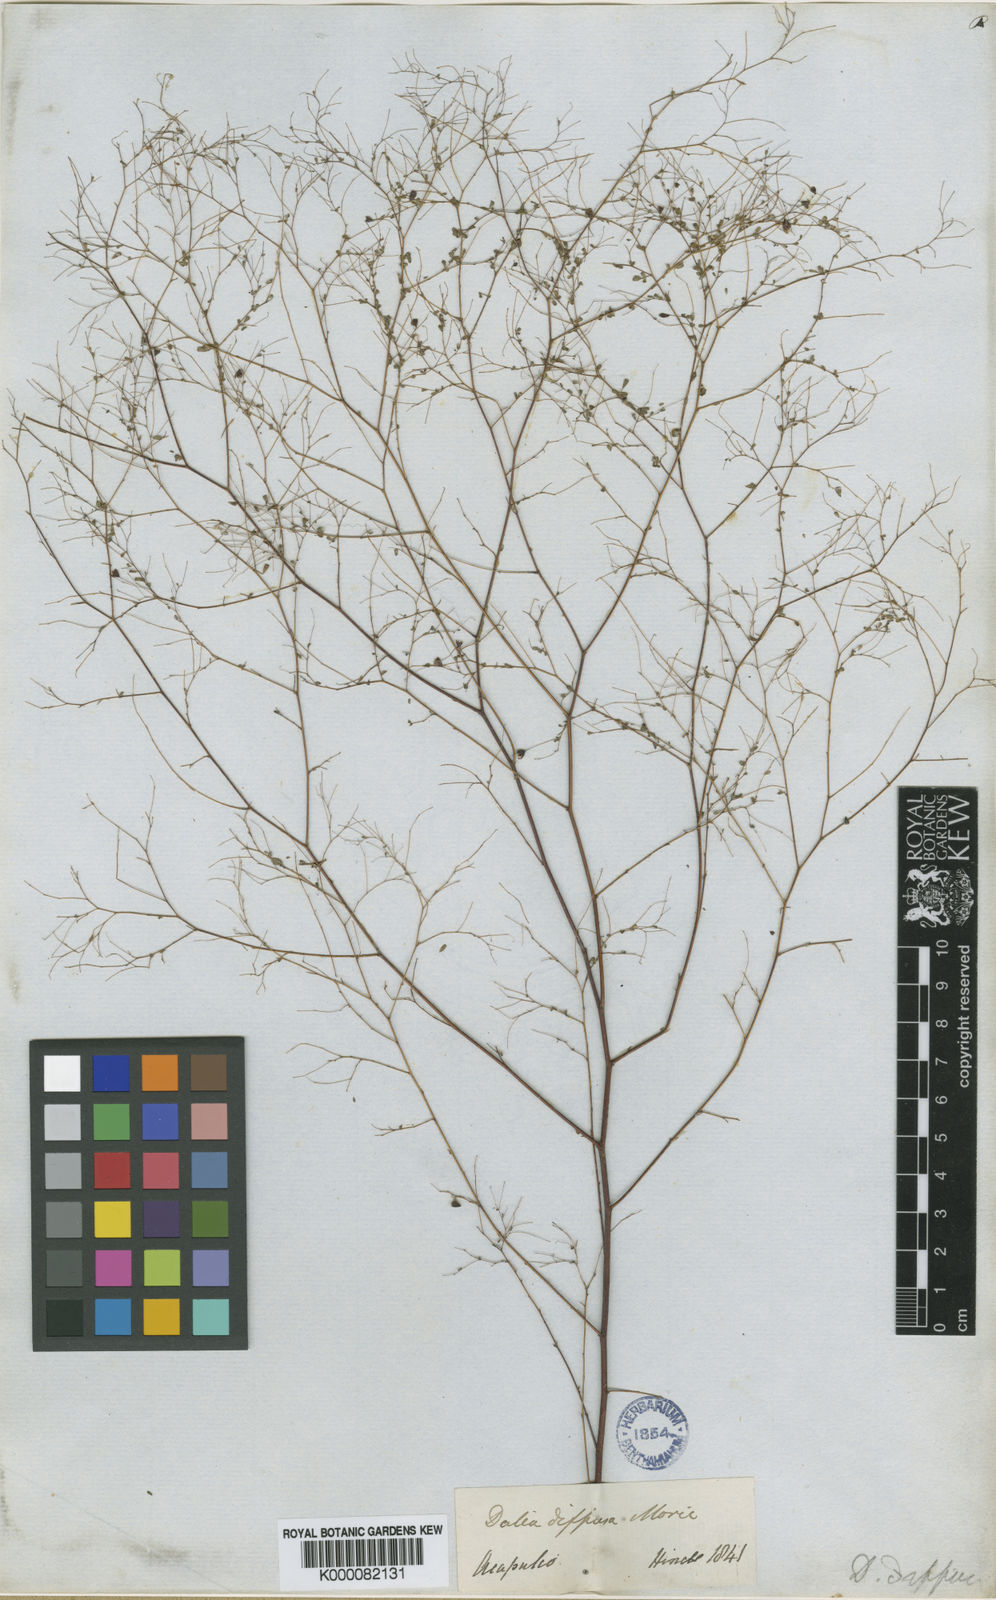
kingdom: Plantae
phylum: Tracheophyta
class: Magnoliopsida
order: Fabales
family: Fabaceae
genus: Marina
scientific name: Marina diffusa
